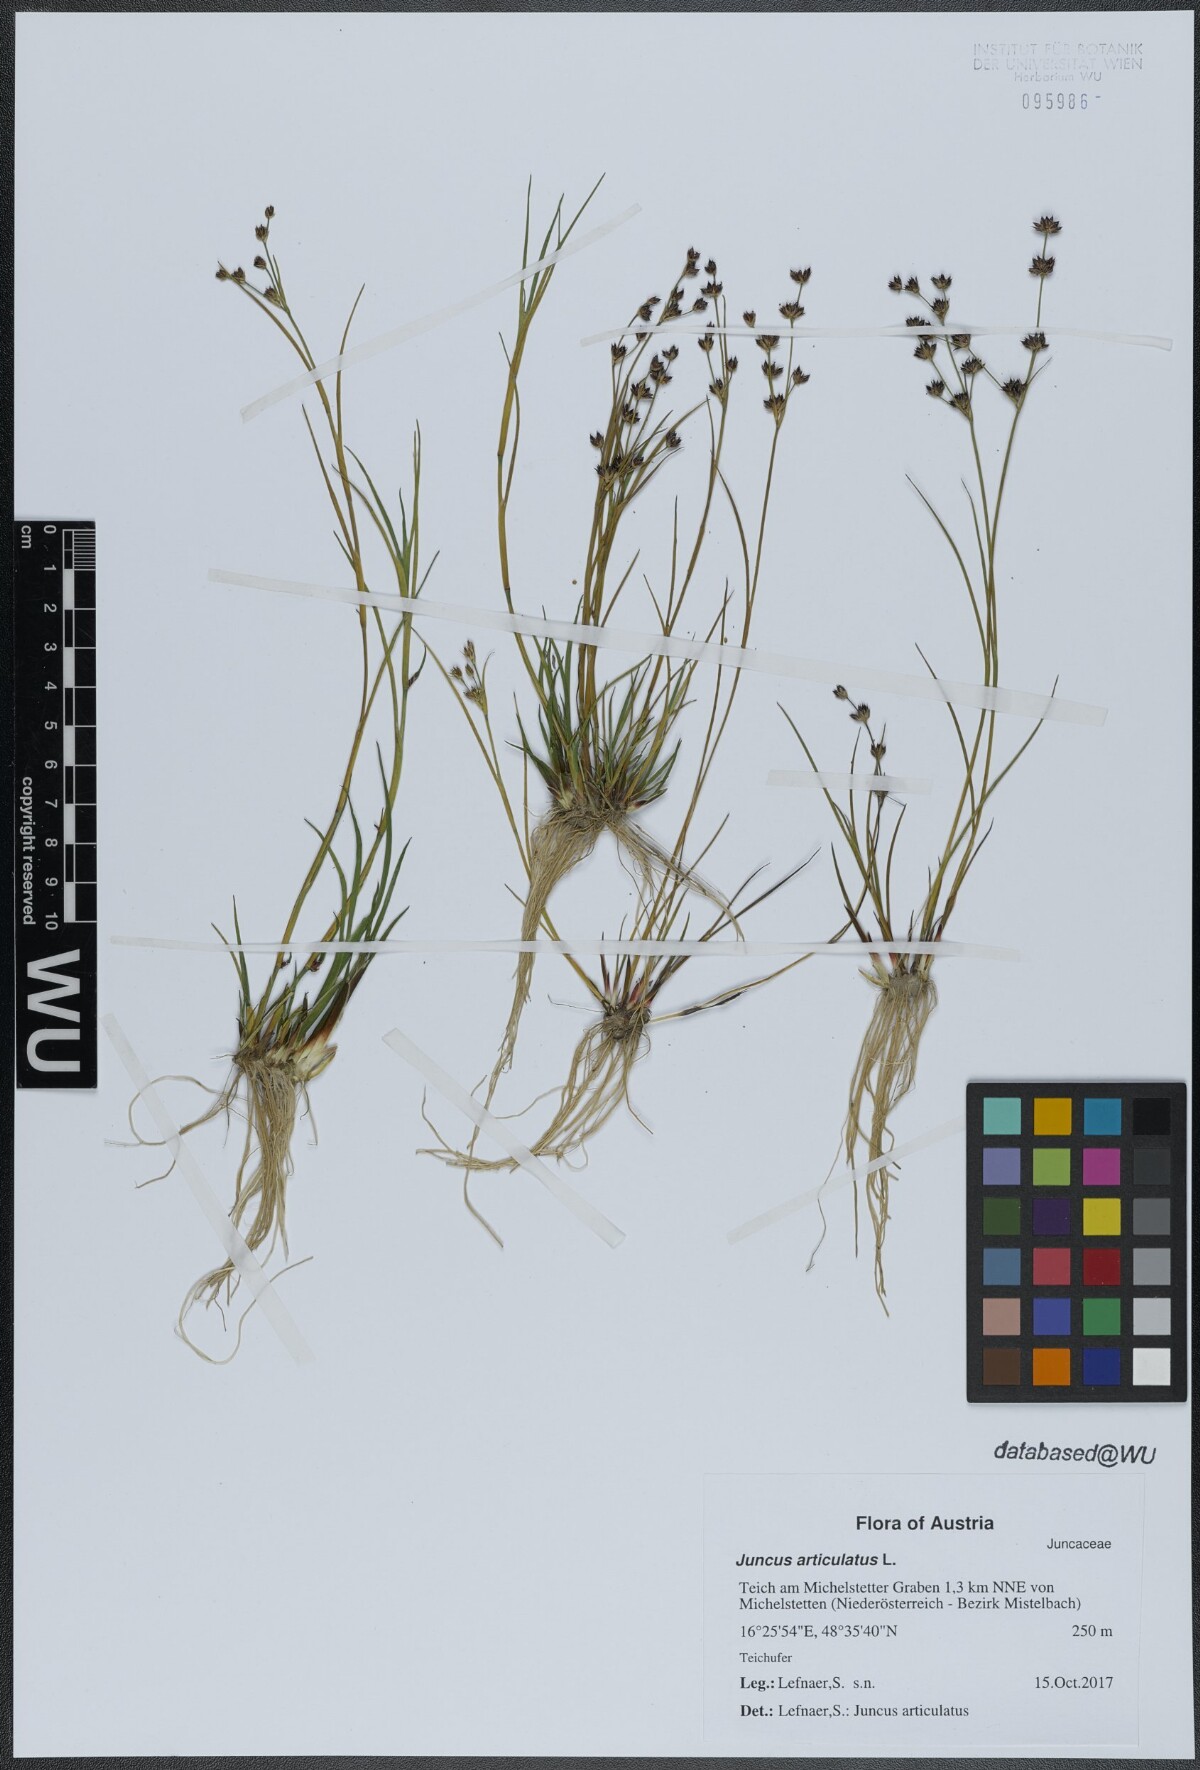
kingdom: Plantae
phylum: Tracheophyta
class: Liliopsida
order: Poales
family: Juncaceae
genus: Juncus
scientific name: Juncus articulatus
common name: Jointed rush
